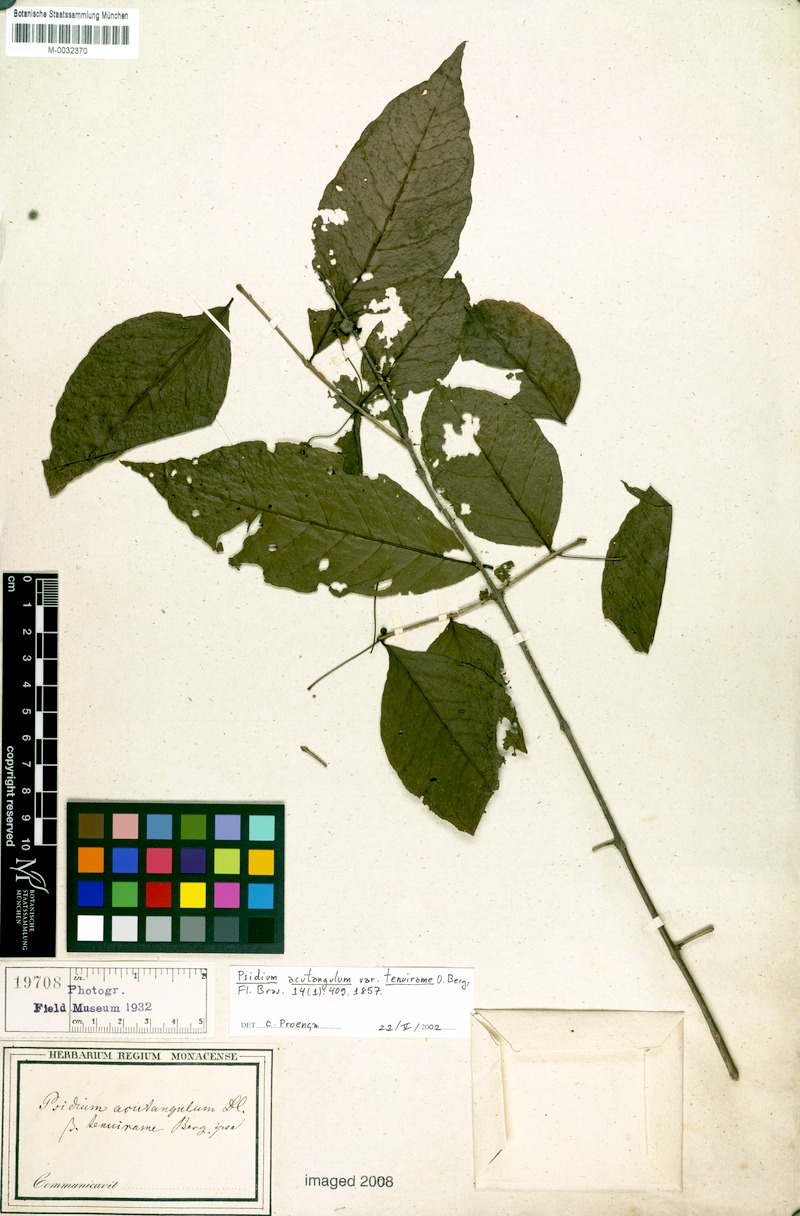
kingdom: Plantae
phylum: Tracheophyta
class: Magnoliopsida
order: Myrtales
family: Myrtaceae
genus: Psidium
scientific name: Psidium acutangulum
